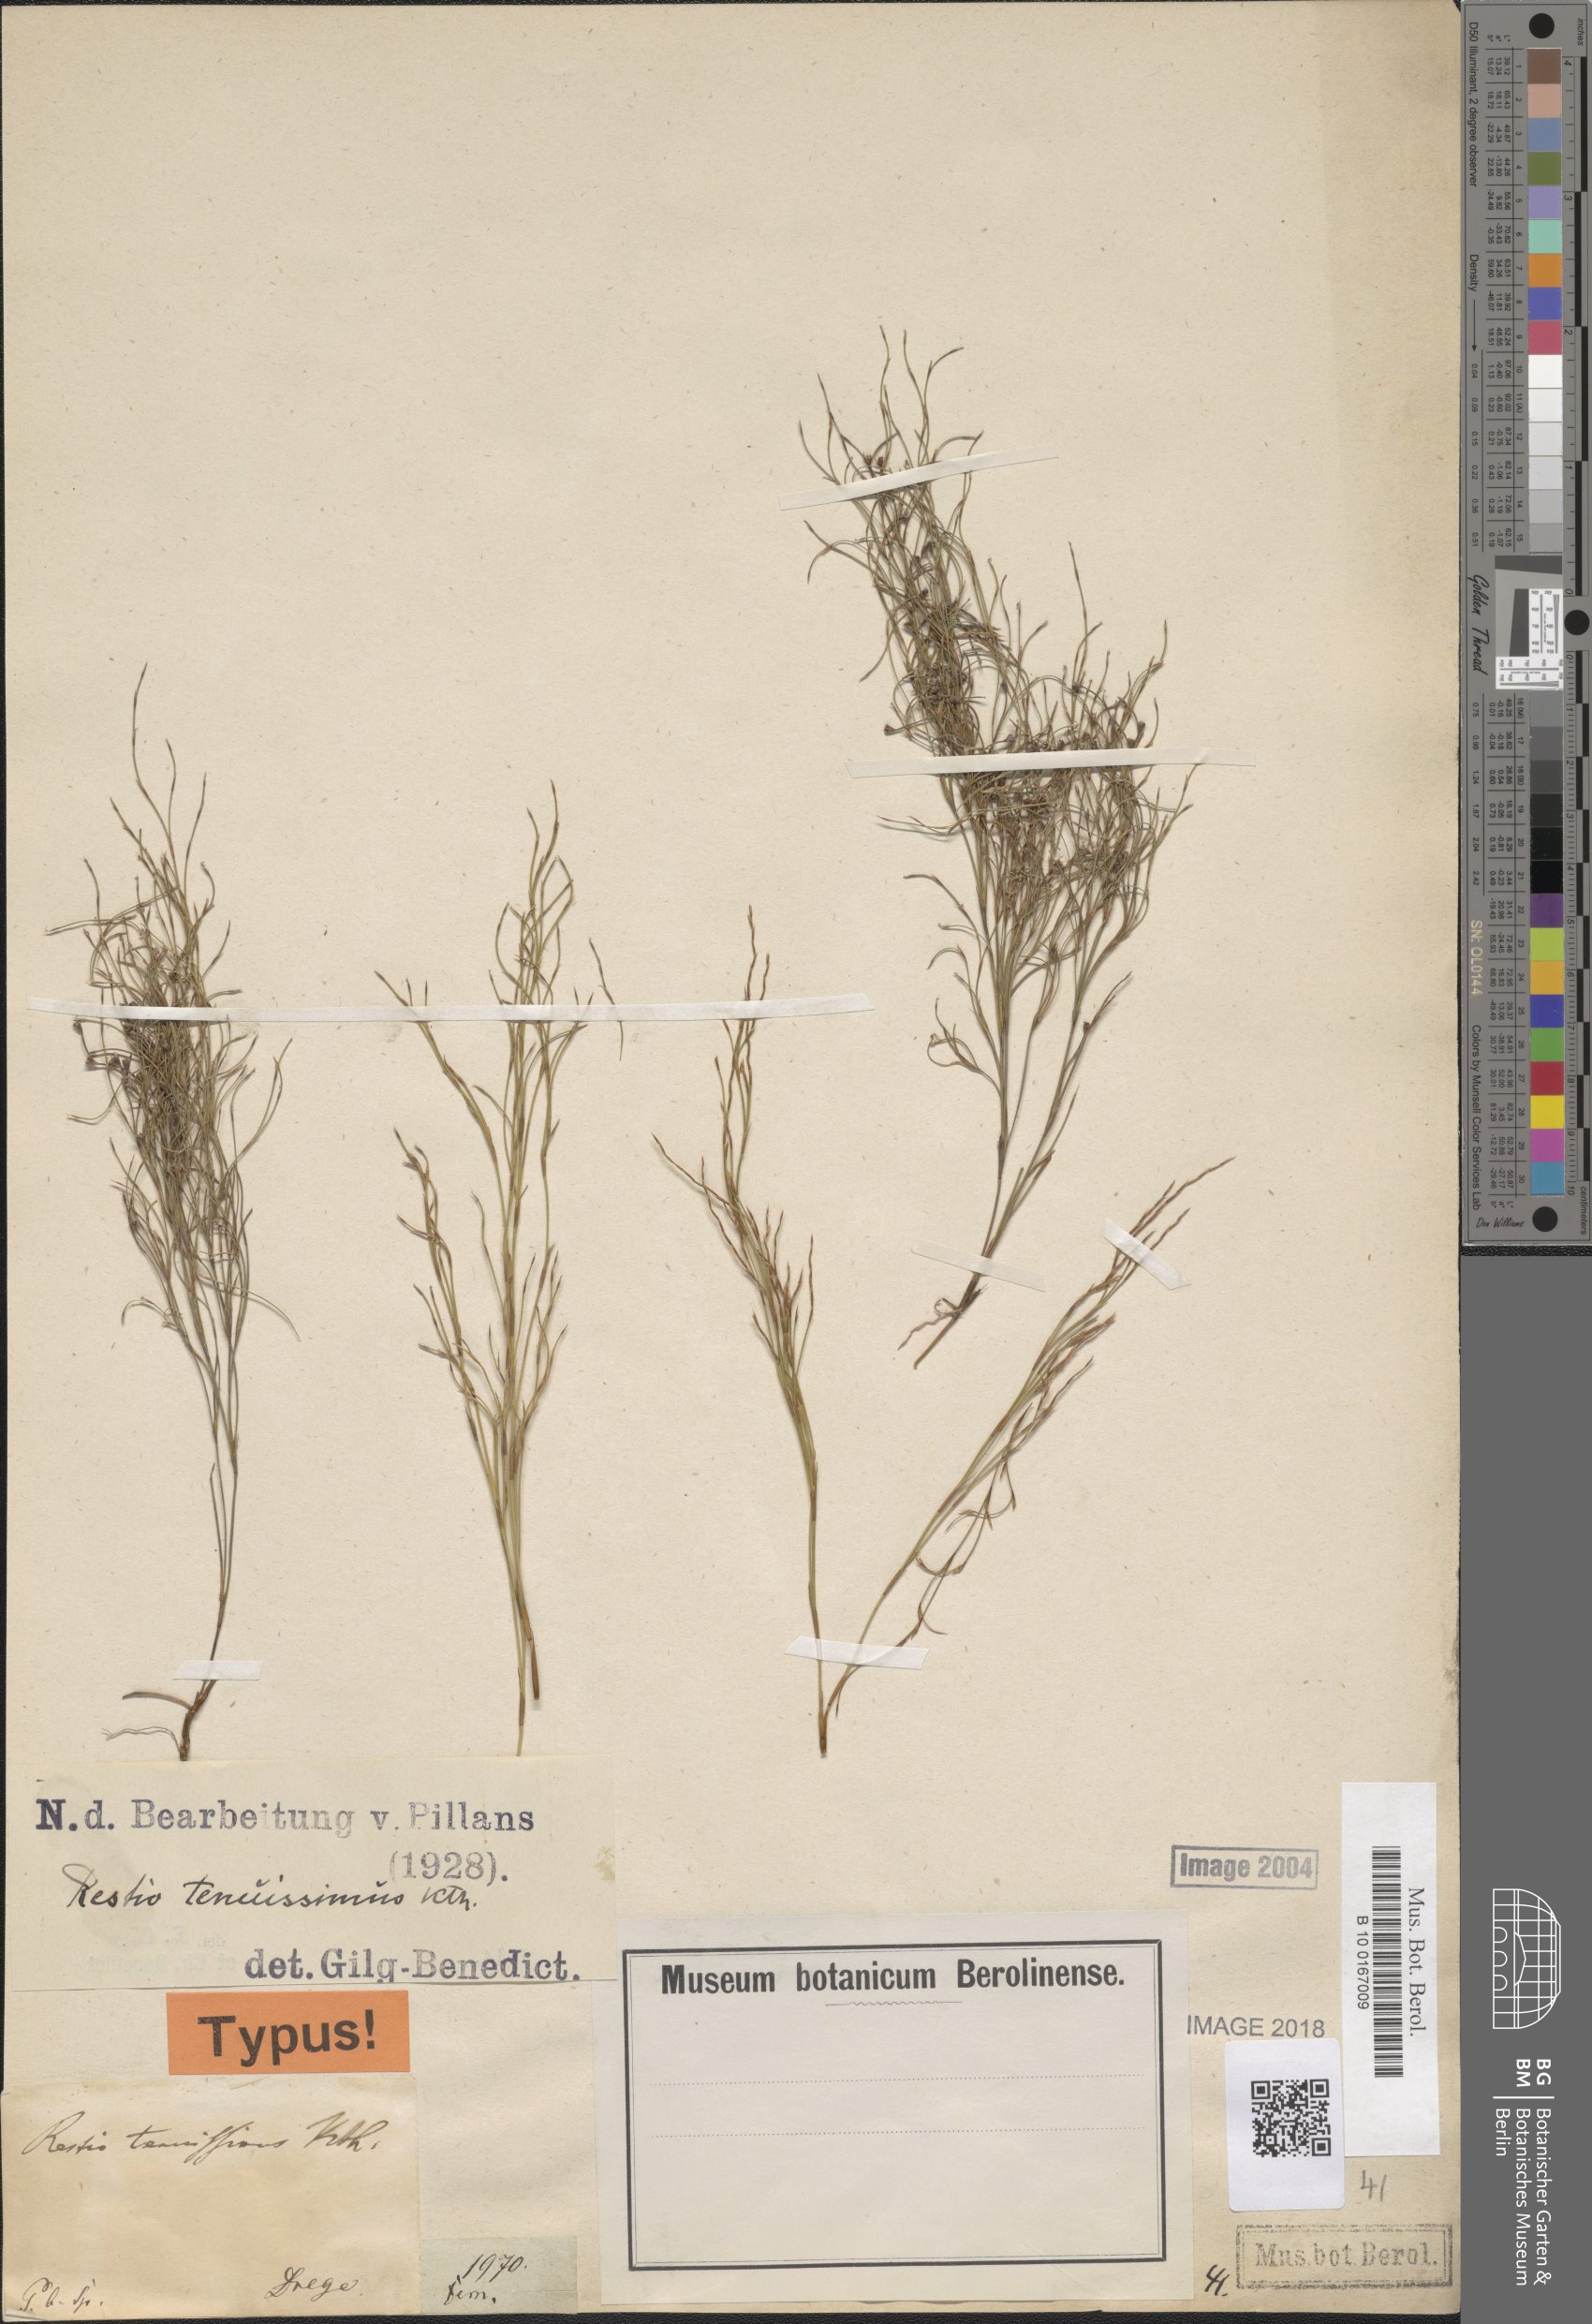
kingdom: Plantae
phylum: Tracheophyta
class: Liliopsida
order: Poales
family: Restionaceae
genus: Restio
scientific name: Restio tenuissimus
